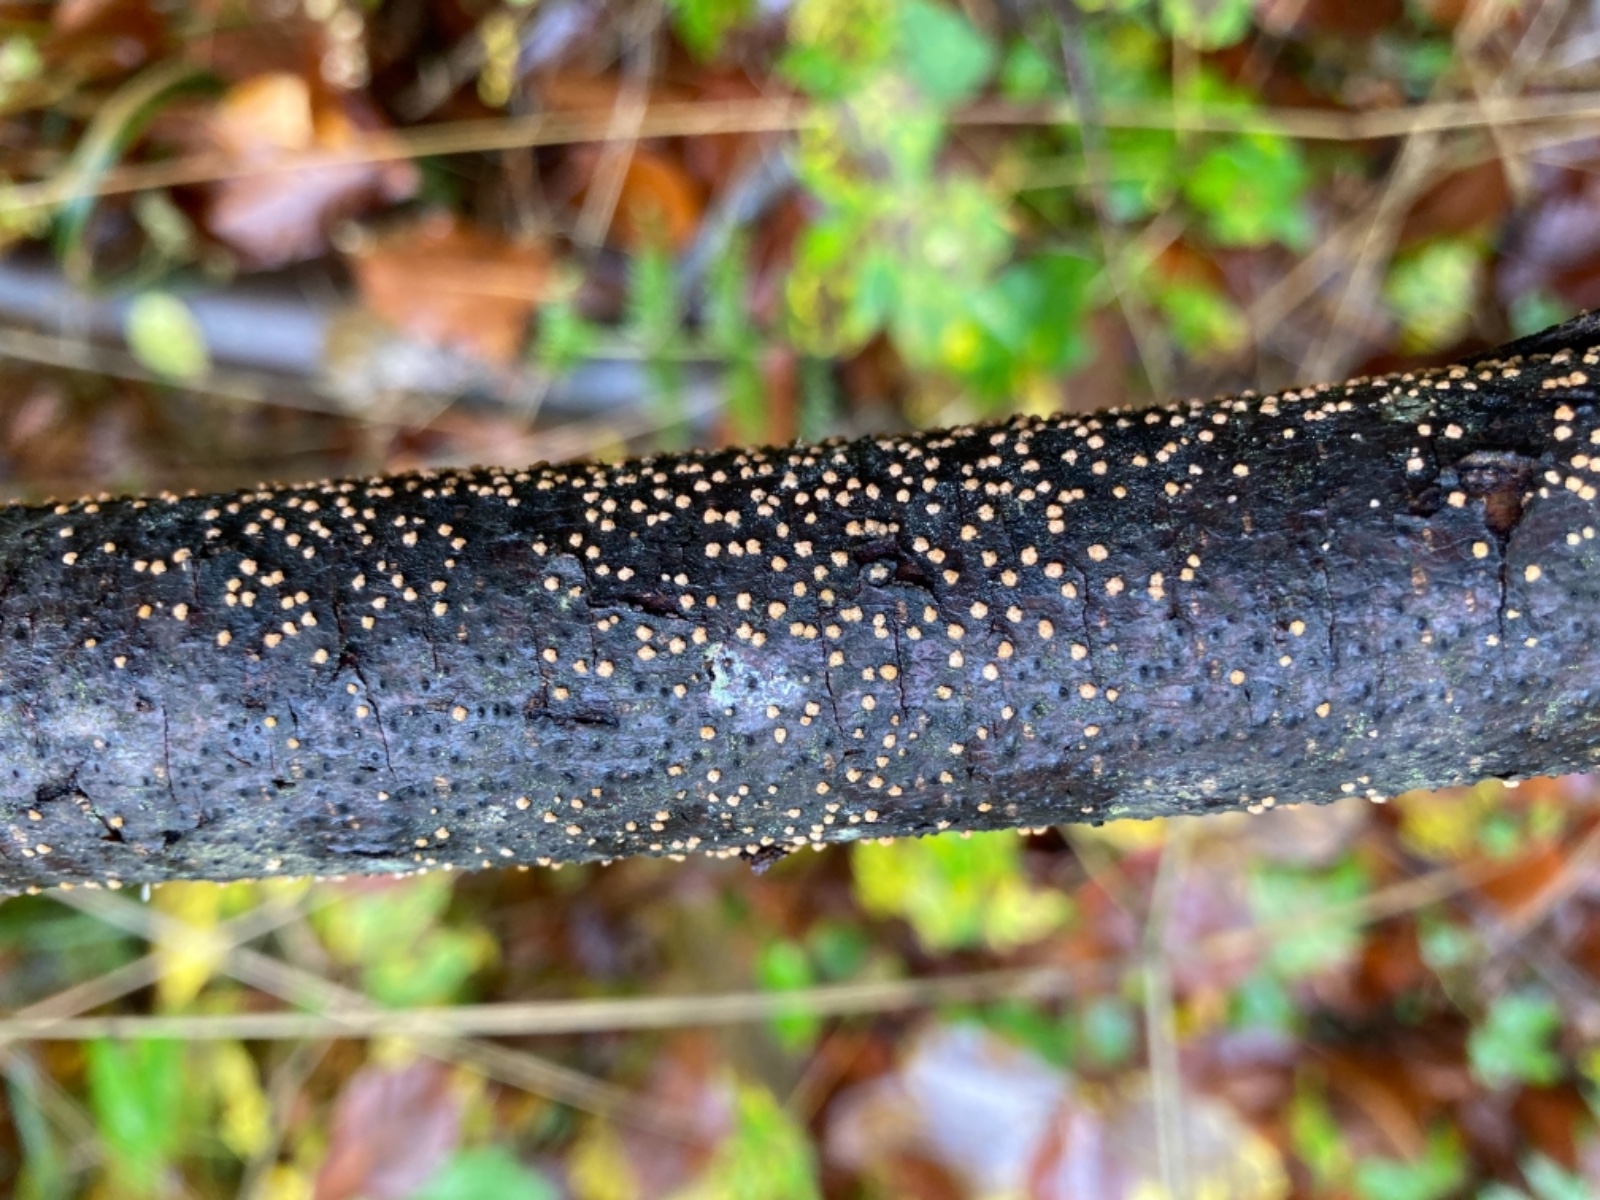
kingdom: Fungi
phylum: Ascomycota
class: Sordariomycetes
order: Hypocreales
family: Flammocladiellaceae
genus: Flammocladiella
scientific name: Flammocladiella decora
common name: kulvulkan-cinnobersvamp
